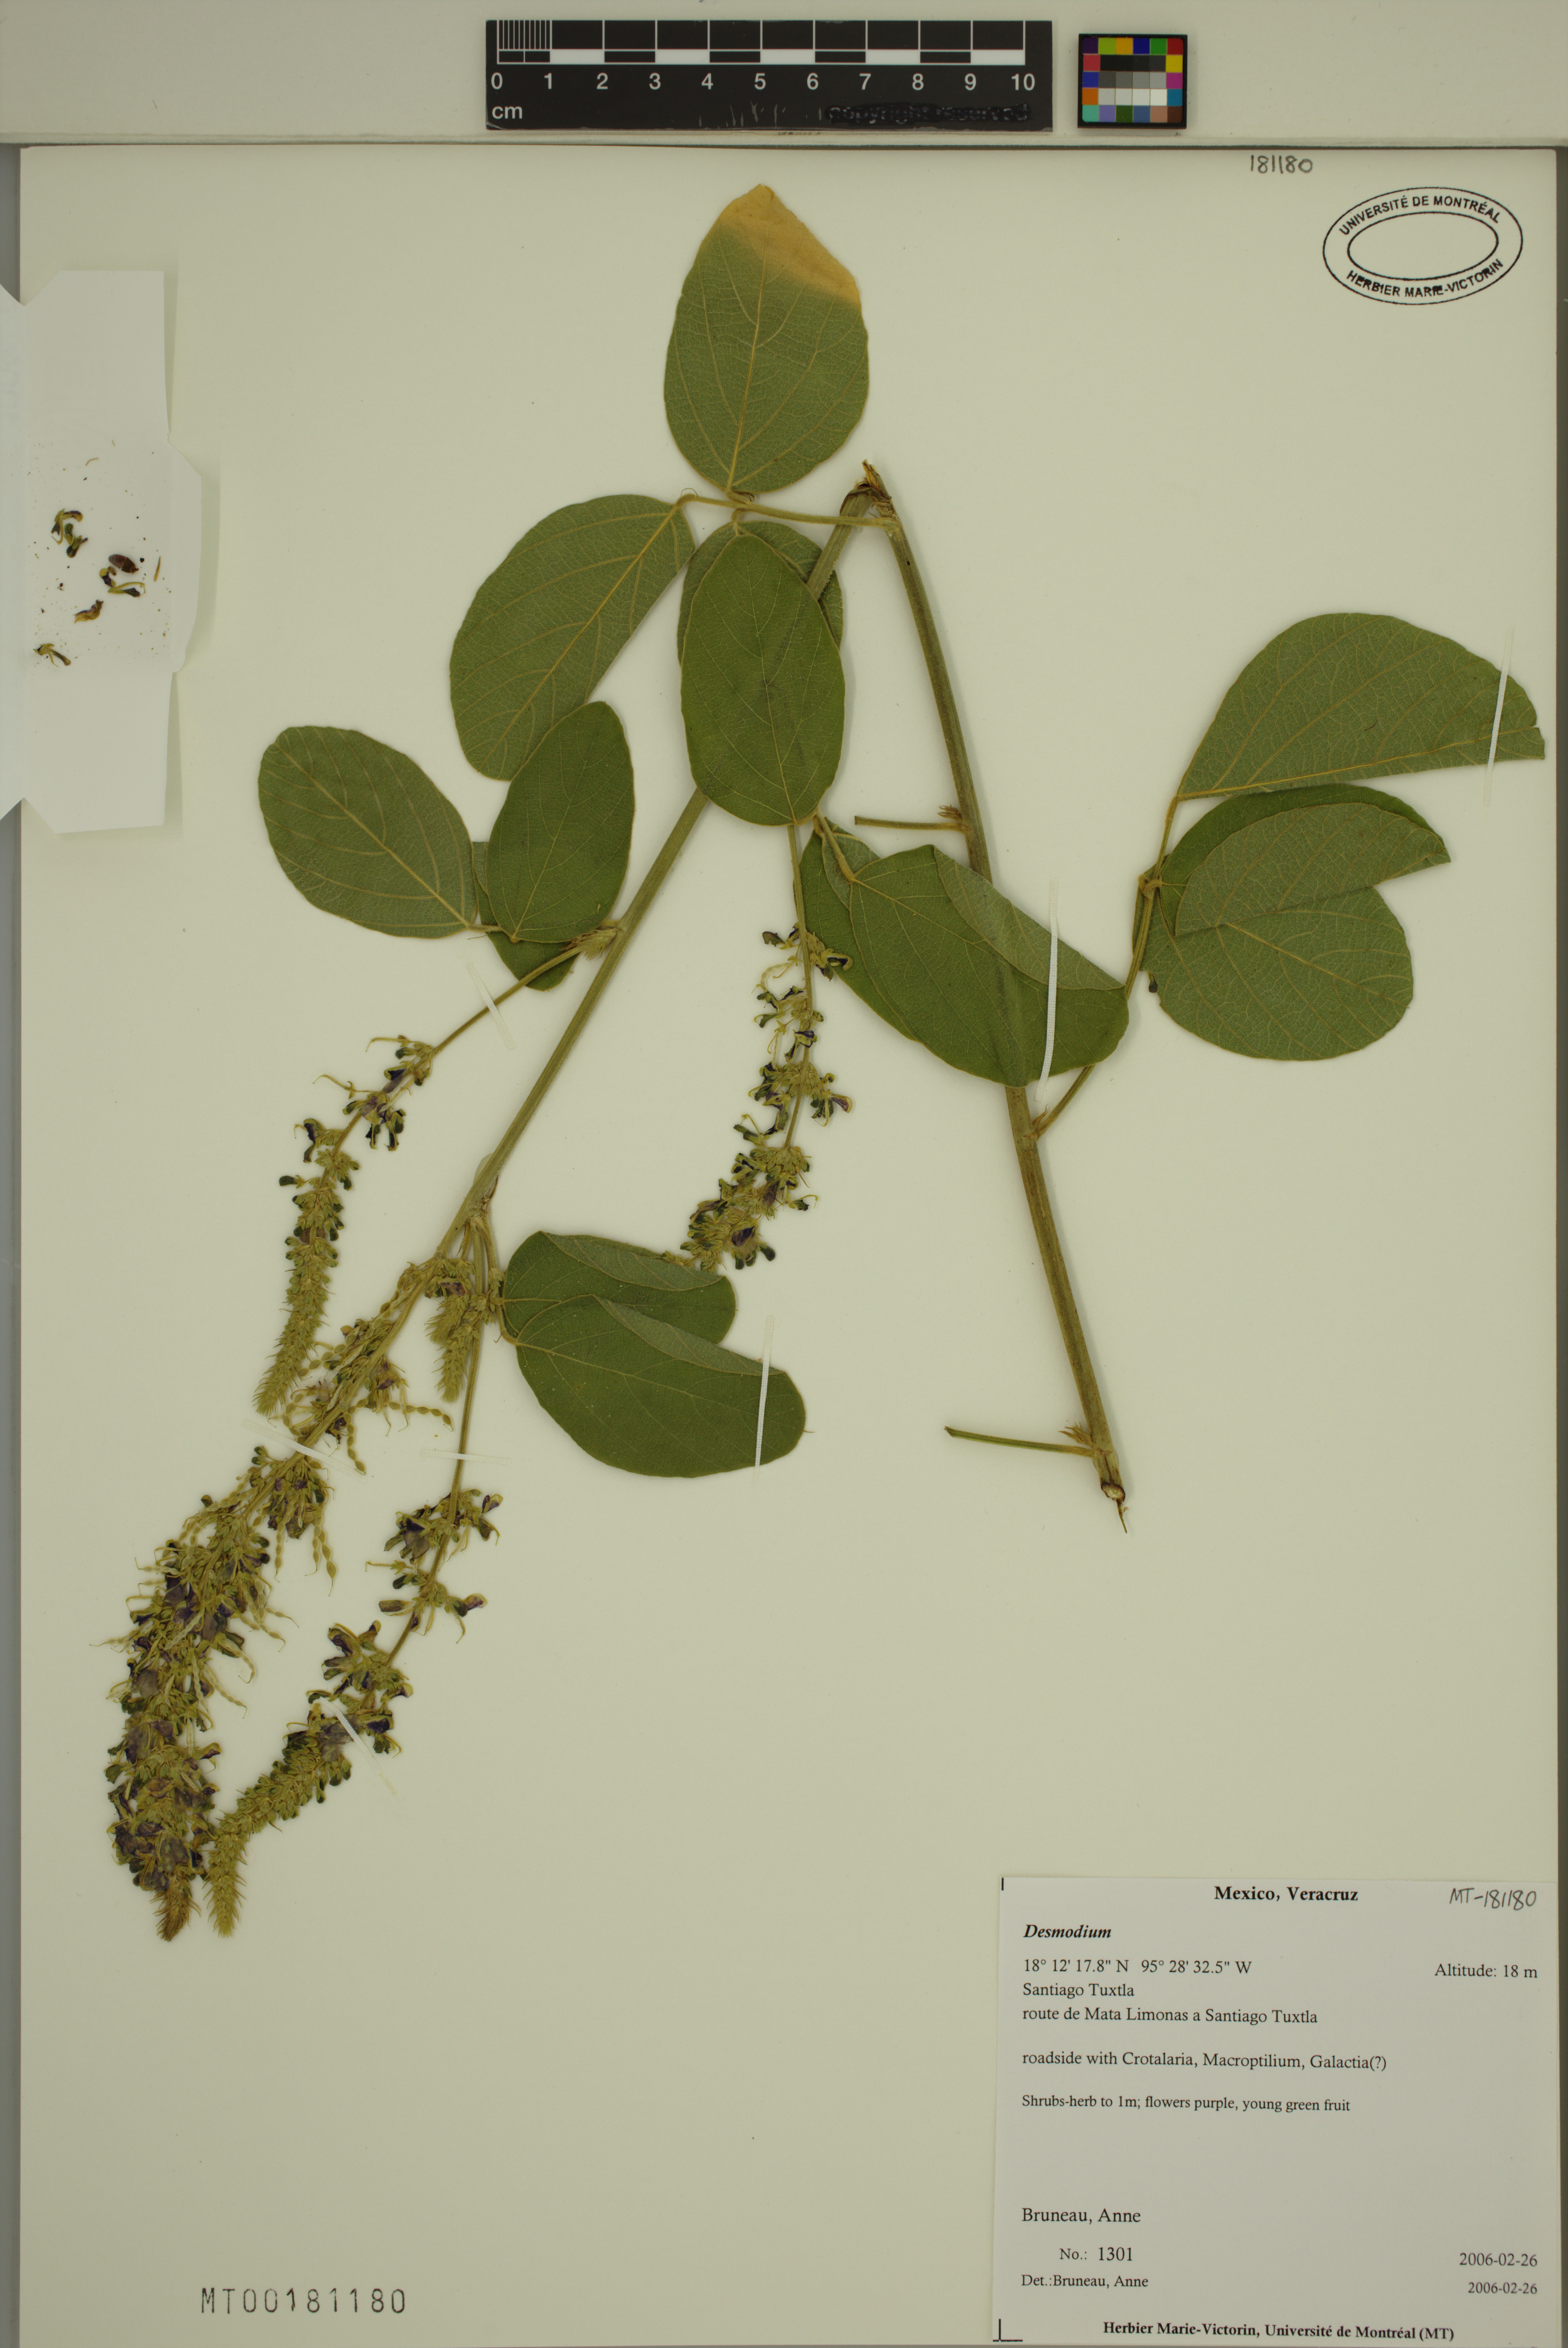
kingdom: Plantae
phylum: Tracheophyta
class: Magnoliopsida
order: Fabales
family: Fabaceae
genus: Desmodium
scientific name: Desmodium
